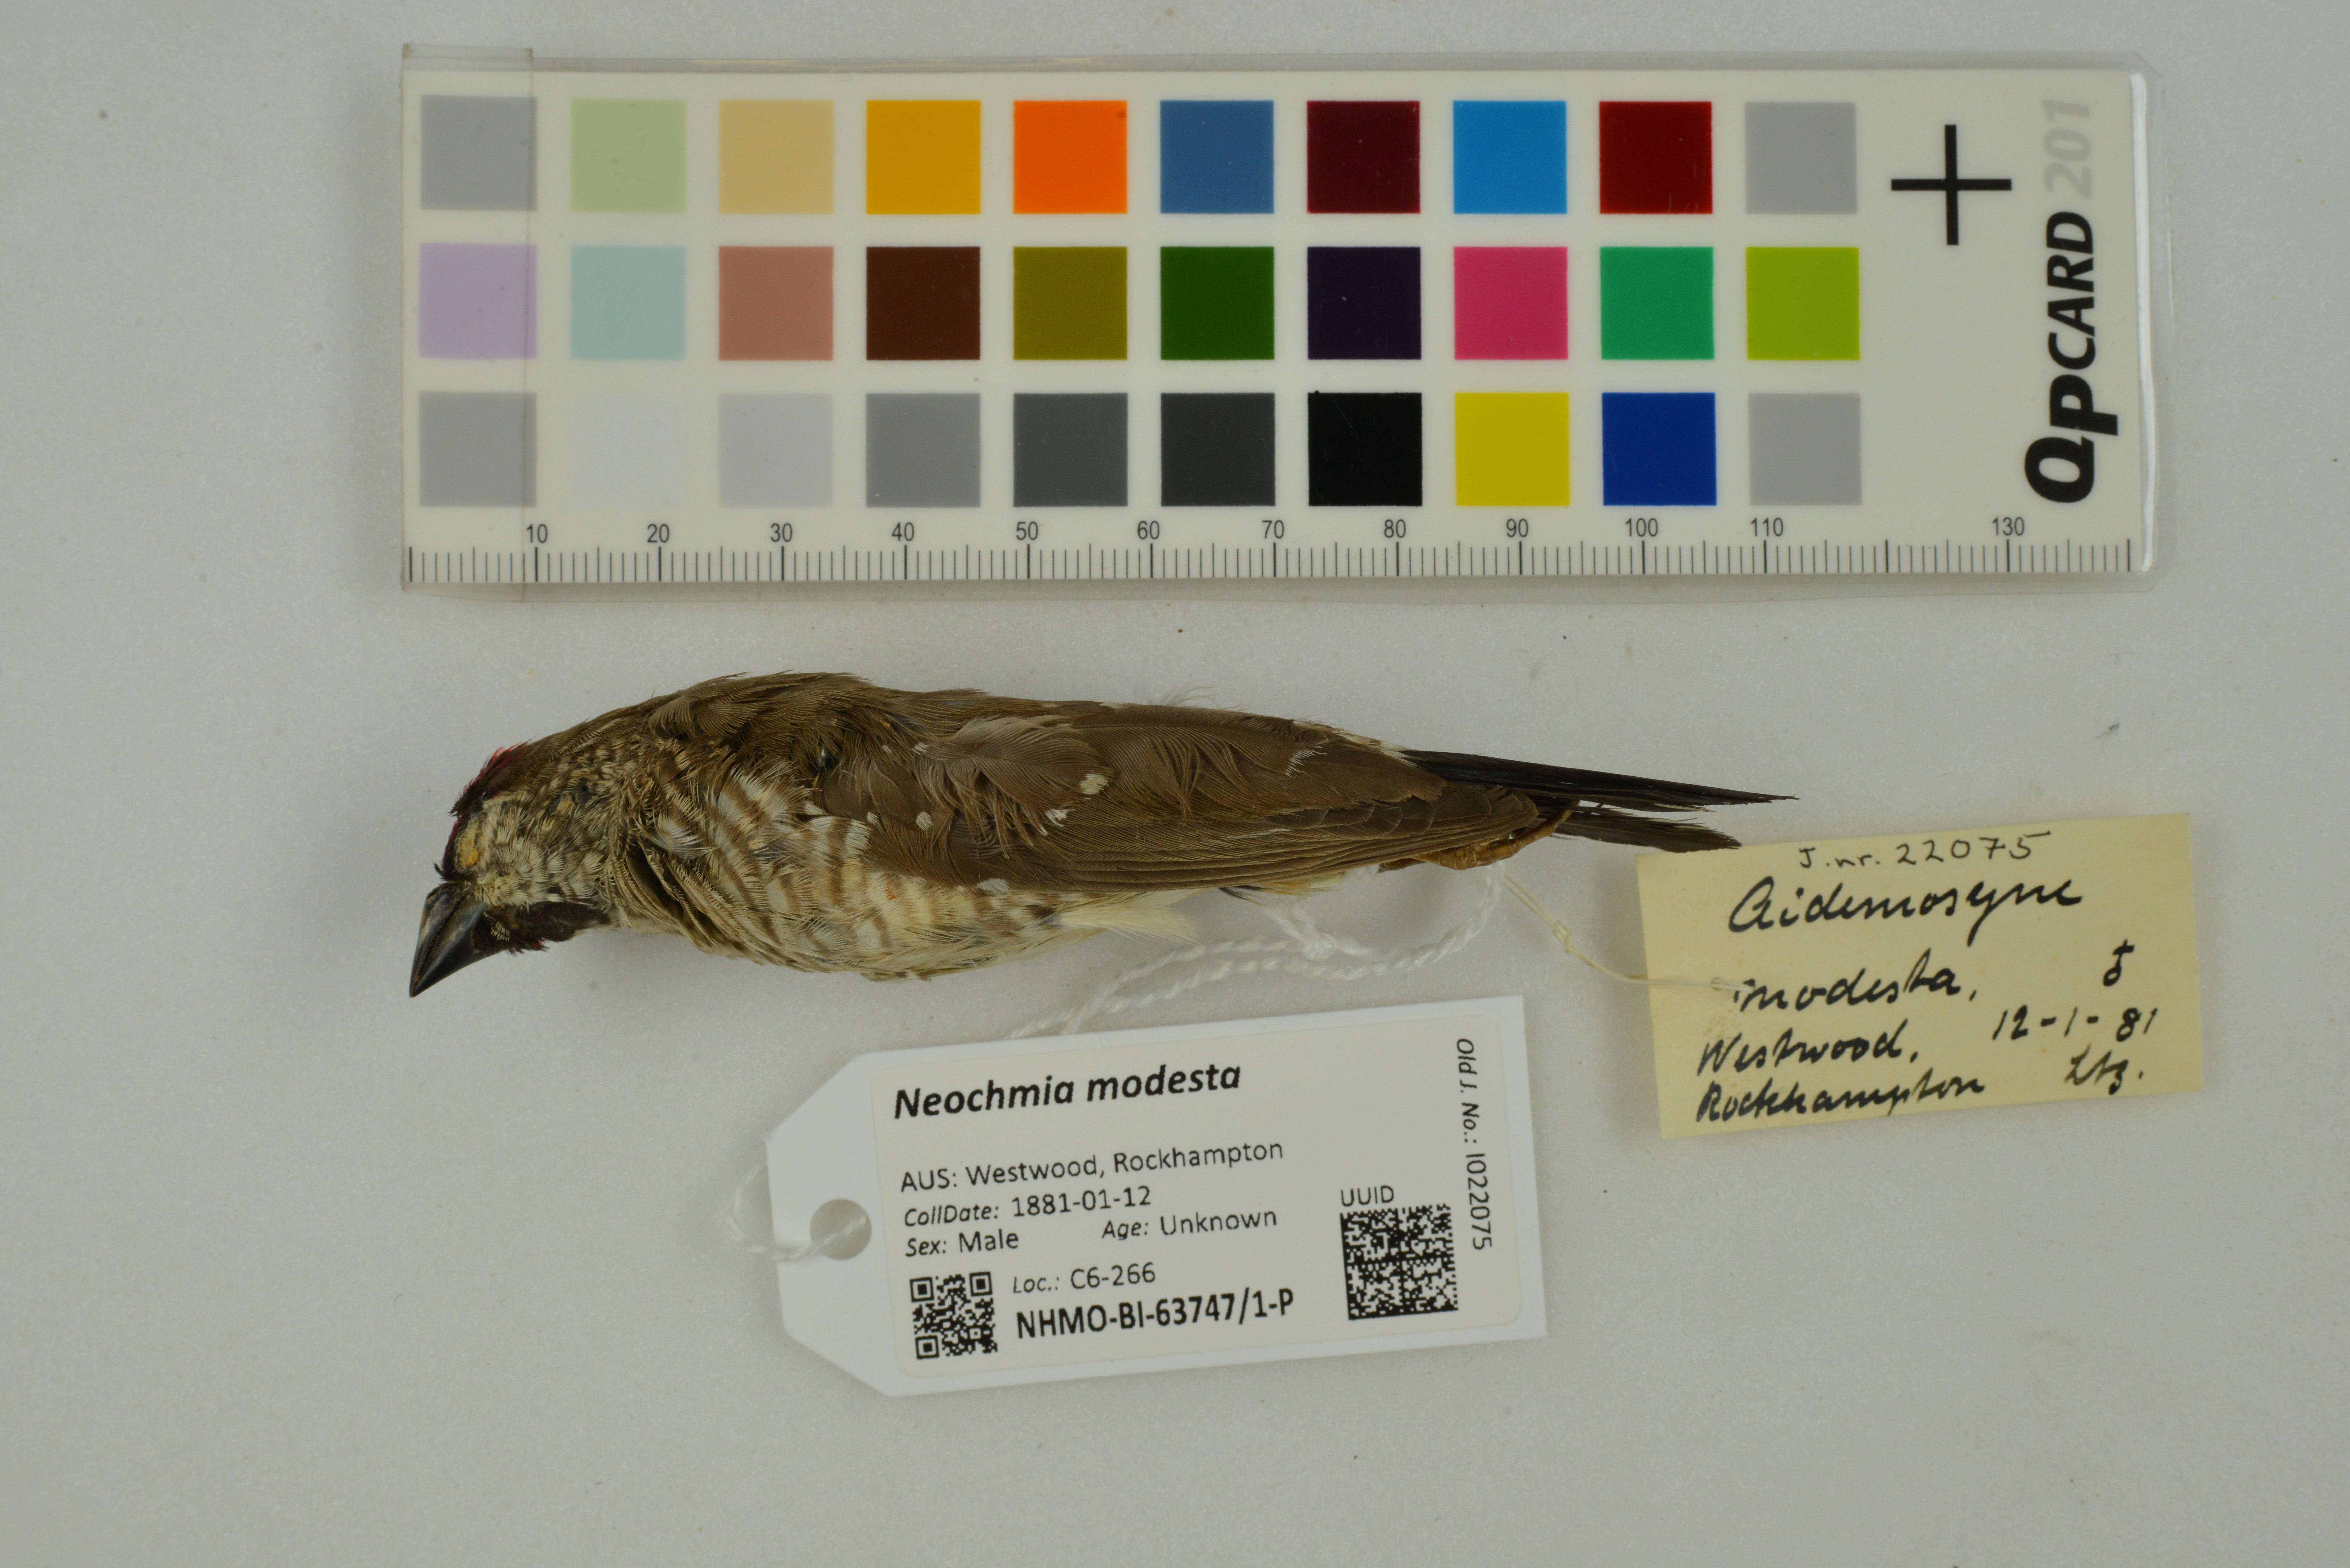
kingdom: Animalia
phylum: Chordata
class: Aves
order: Passeriformes
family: Estrildidae
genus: Neochmia
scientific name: Neochmia modesta
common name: Plum-headed finch
